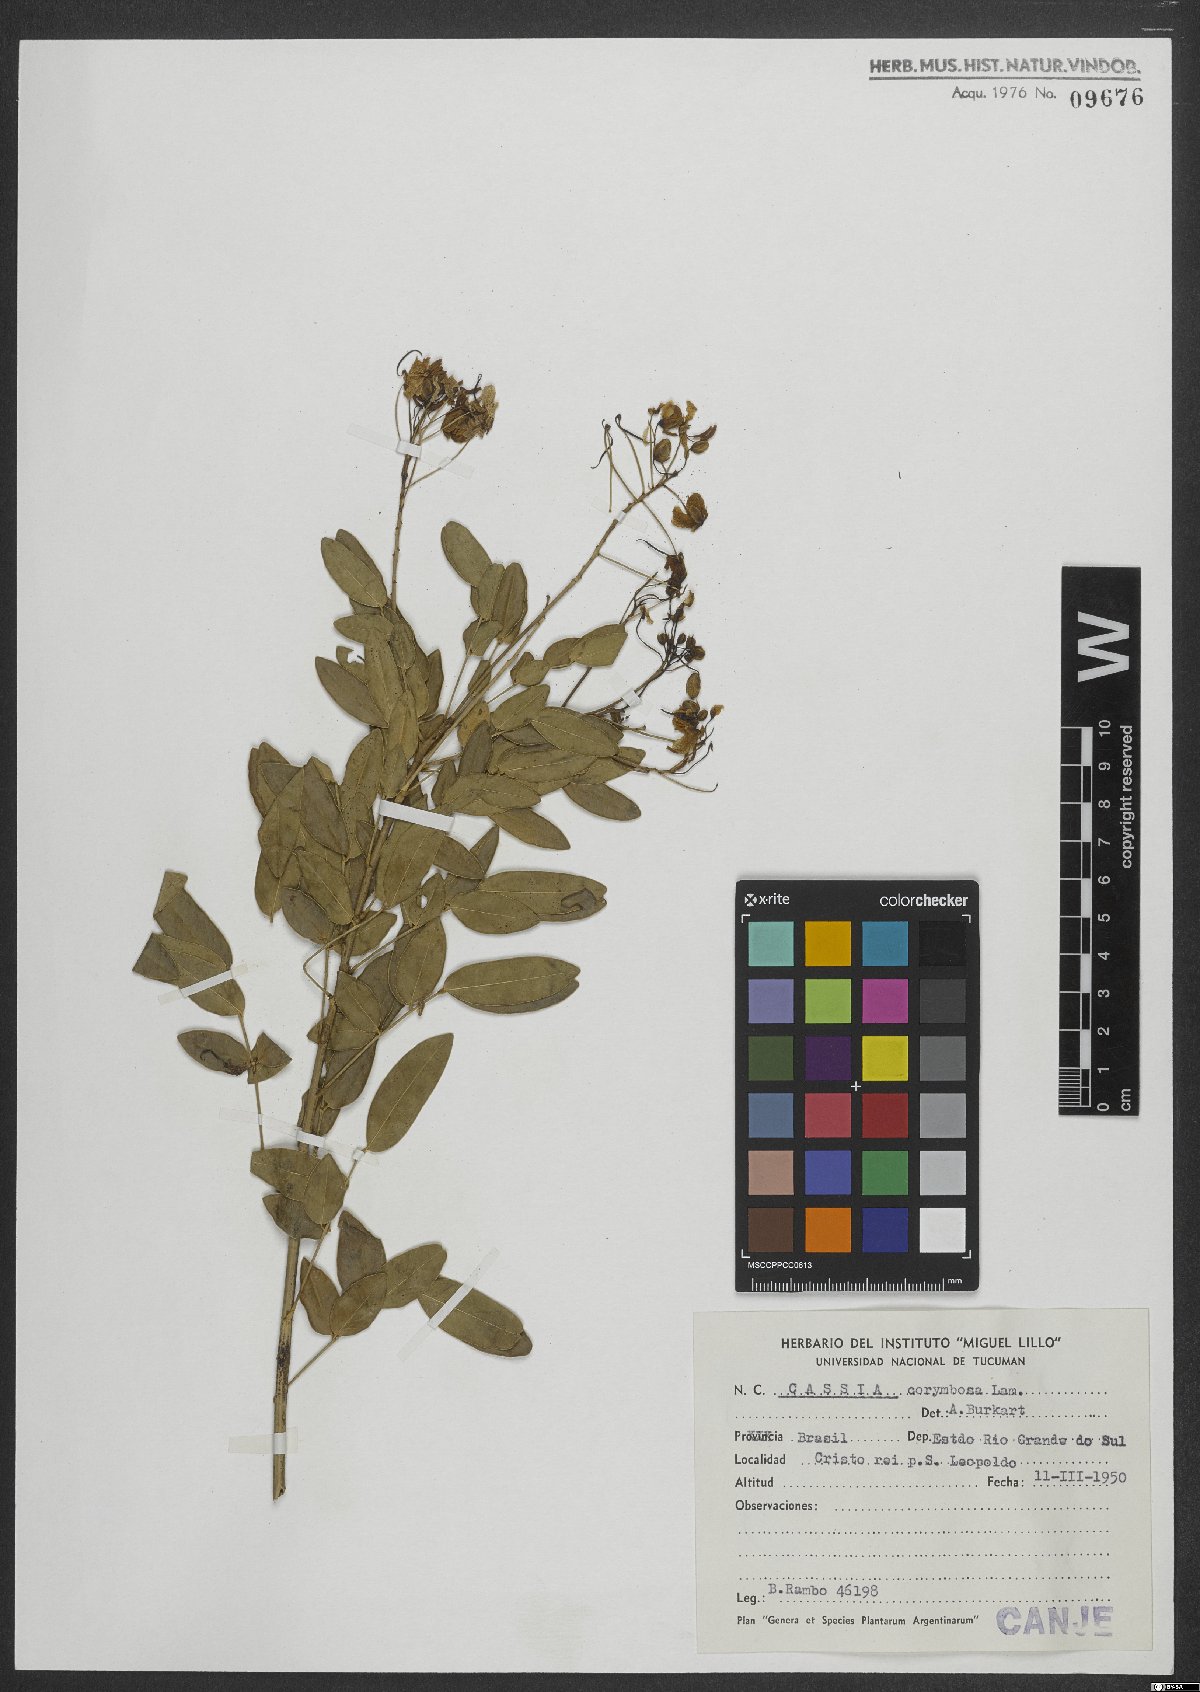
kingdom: Plantae
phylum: Tracheophyta
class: Magnoliopsida
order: Fabales
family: Fabaceae
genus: Senna
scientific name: Senna corymbosa
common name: Argentine senna
